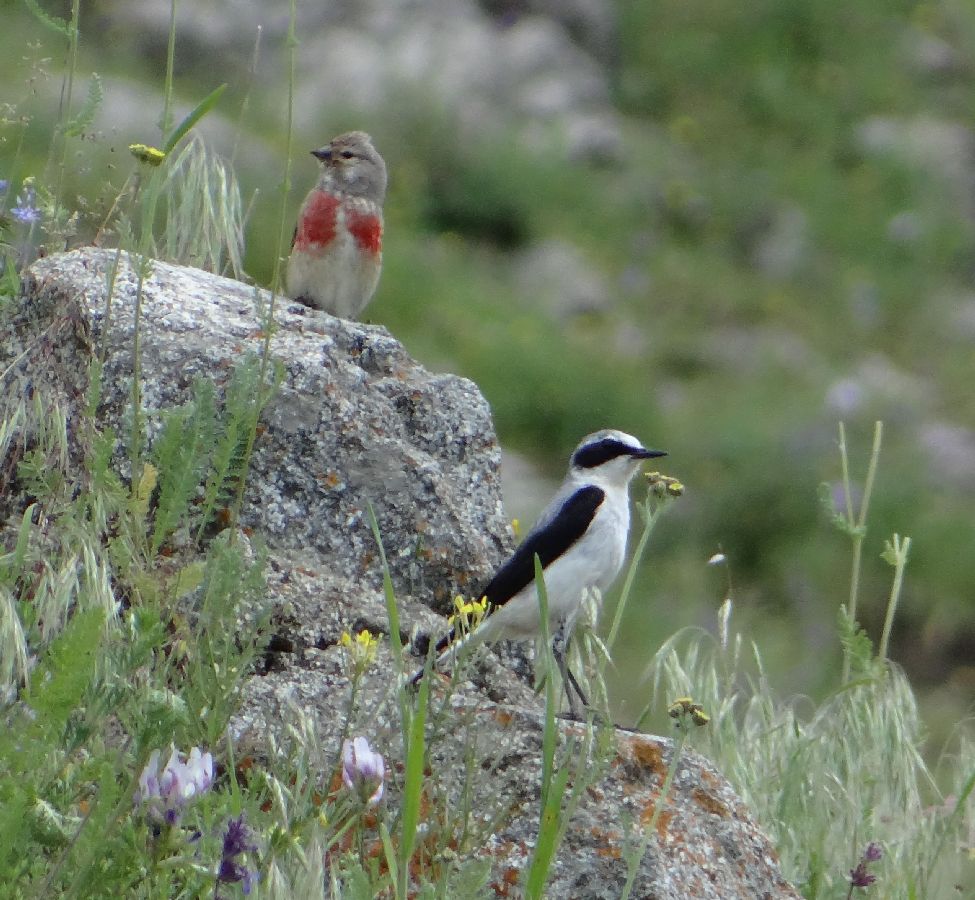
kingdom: Animalia
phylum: Chordata
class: Aves
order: Passeriformes
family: Fringillidae
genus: Linaria
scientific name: Linaria cannabina
